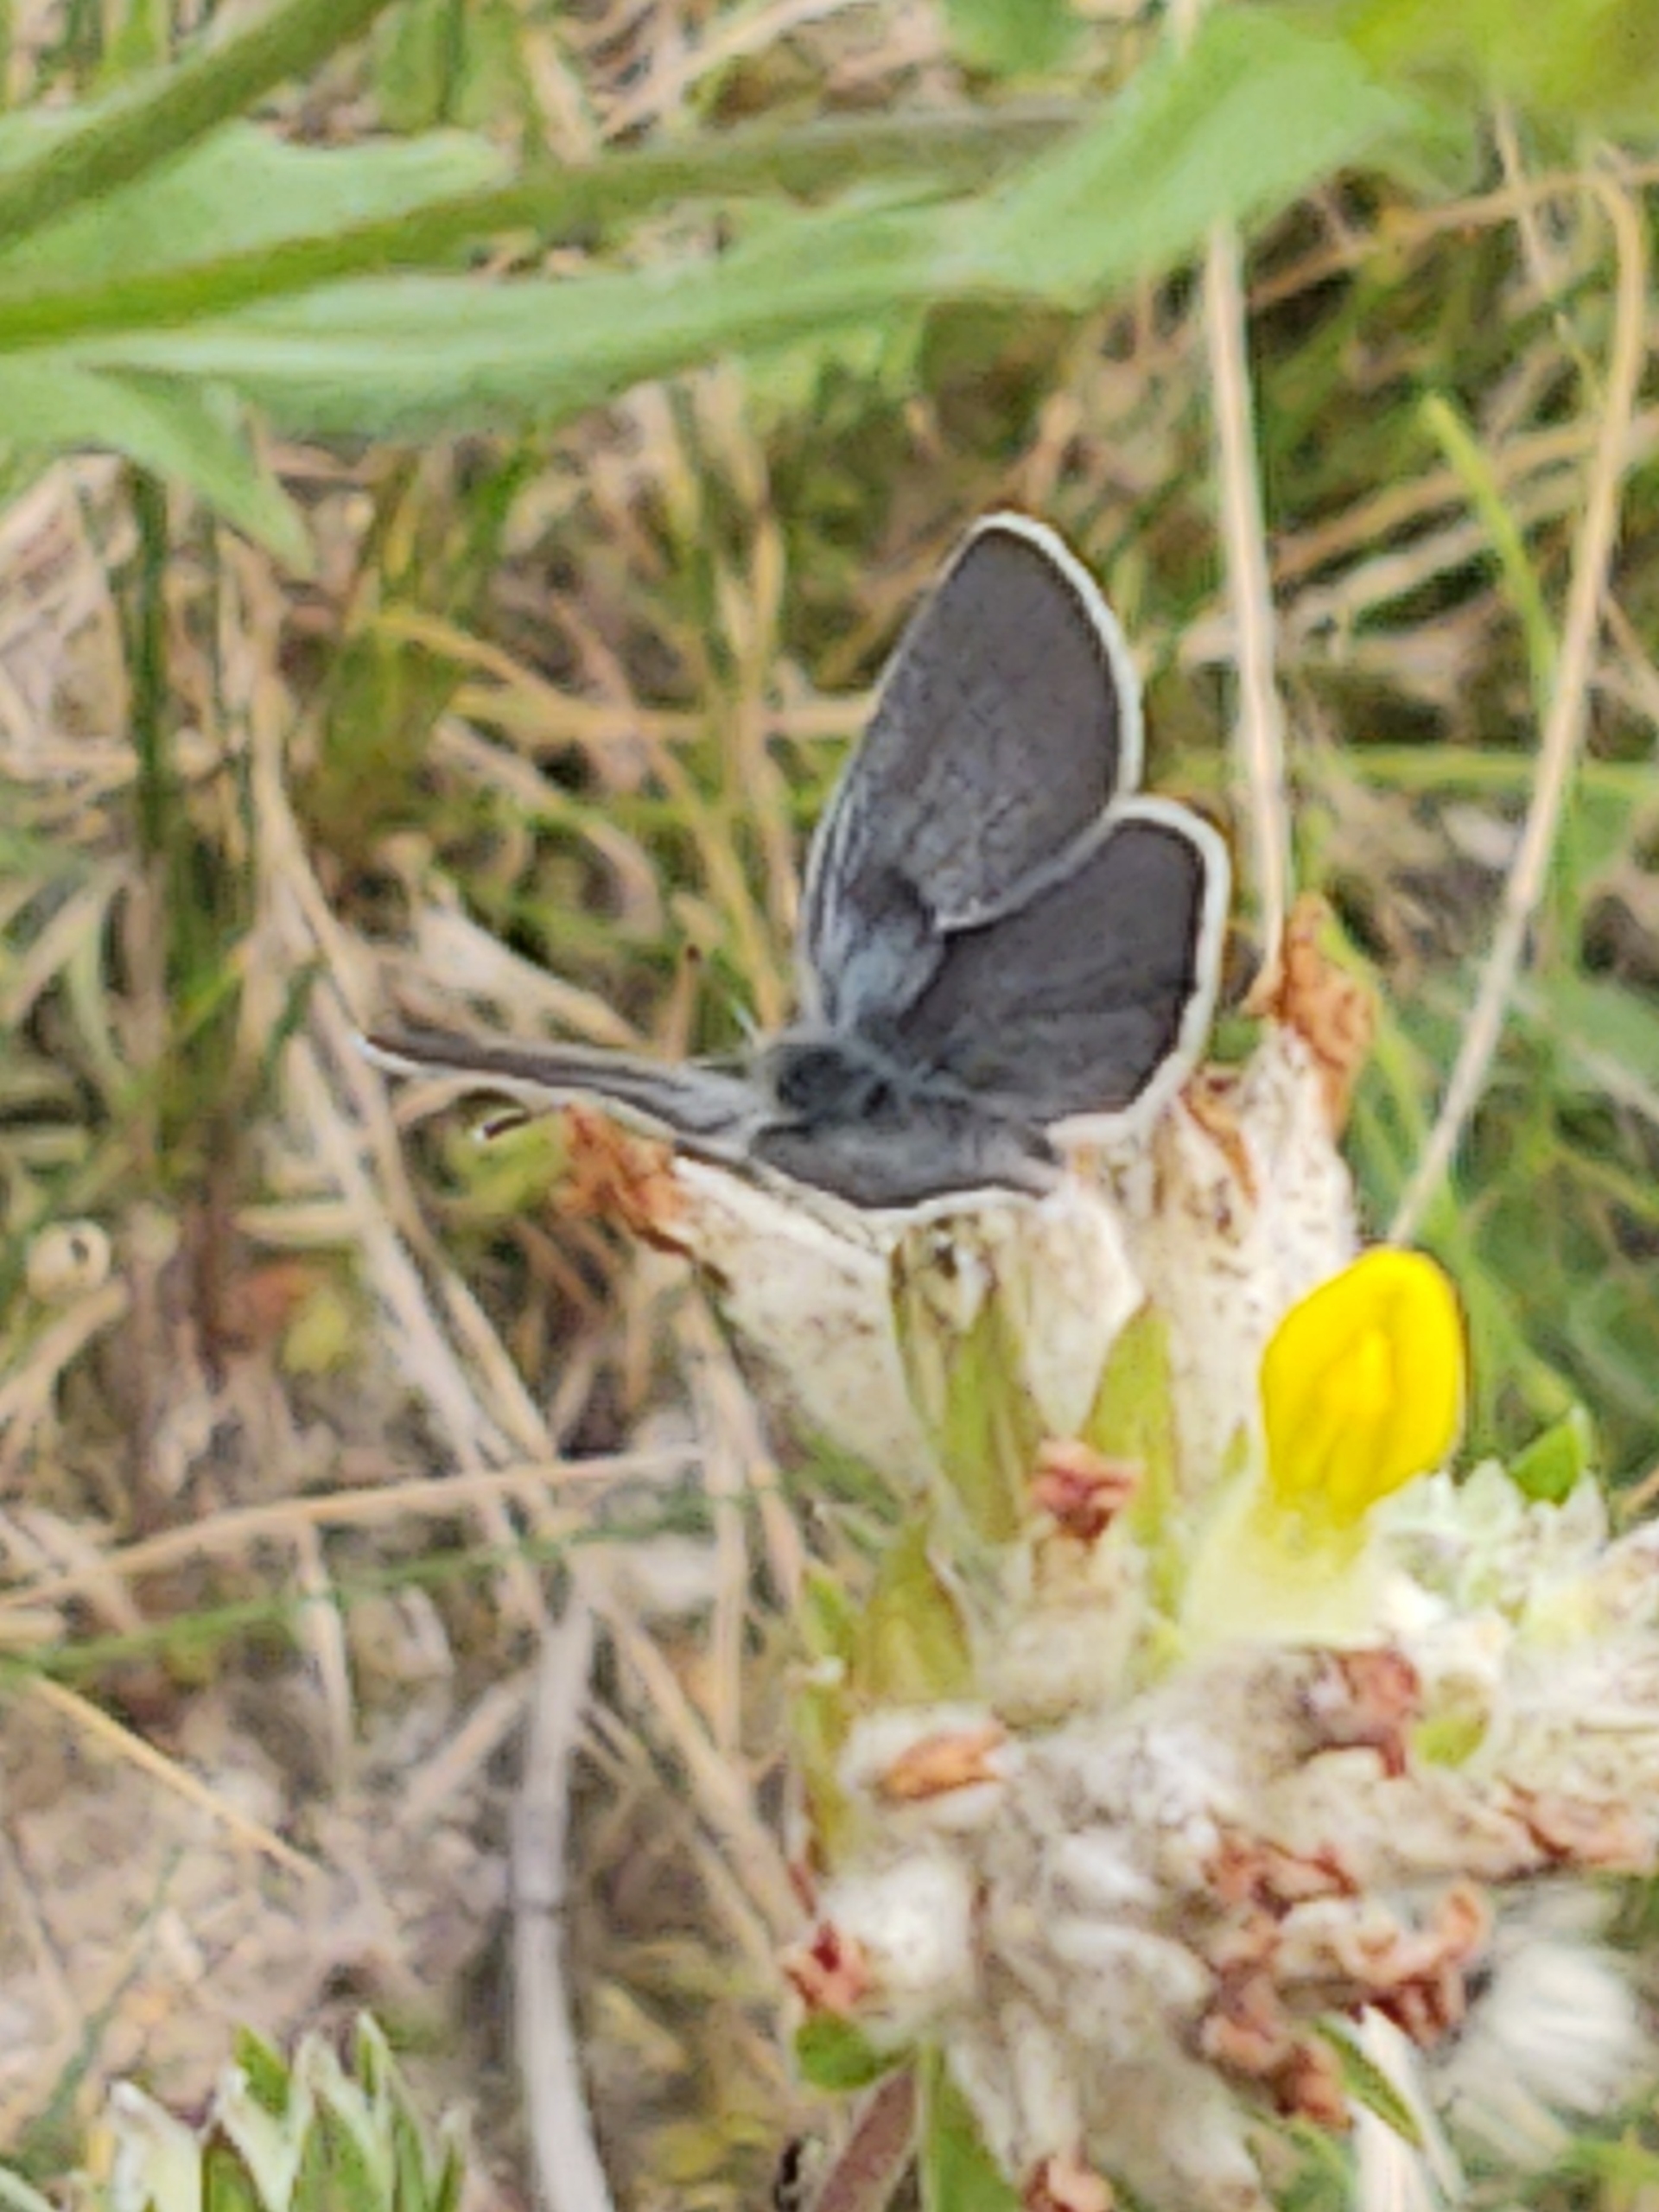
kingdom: Animalia
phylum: Arthropoda
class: Insecta
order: Lepidoptera
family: Lycaenidae
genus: Cupido
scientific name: Cupido minimus
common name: Dværgblåfugl
